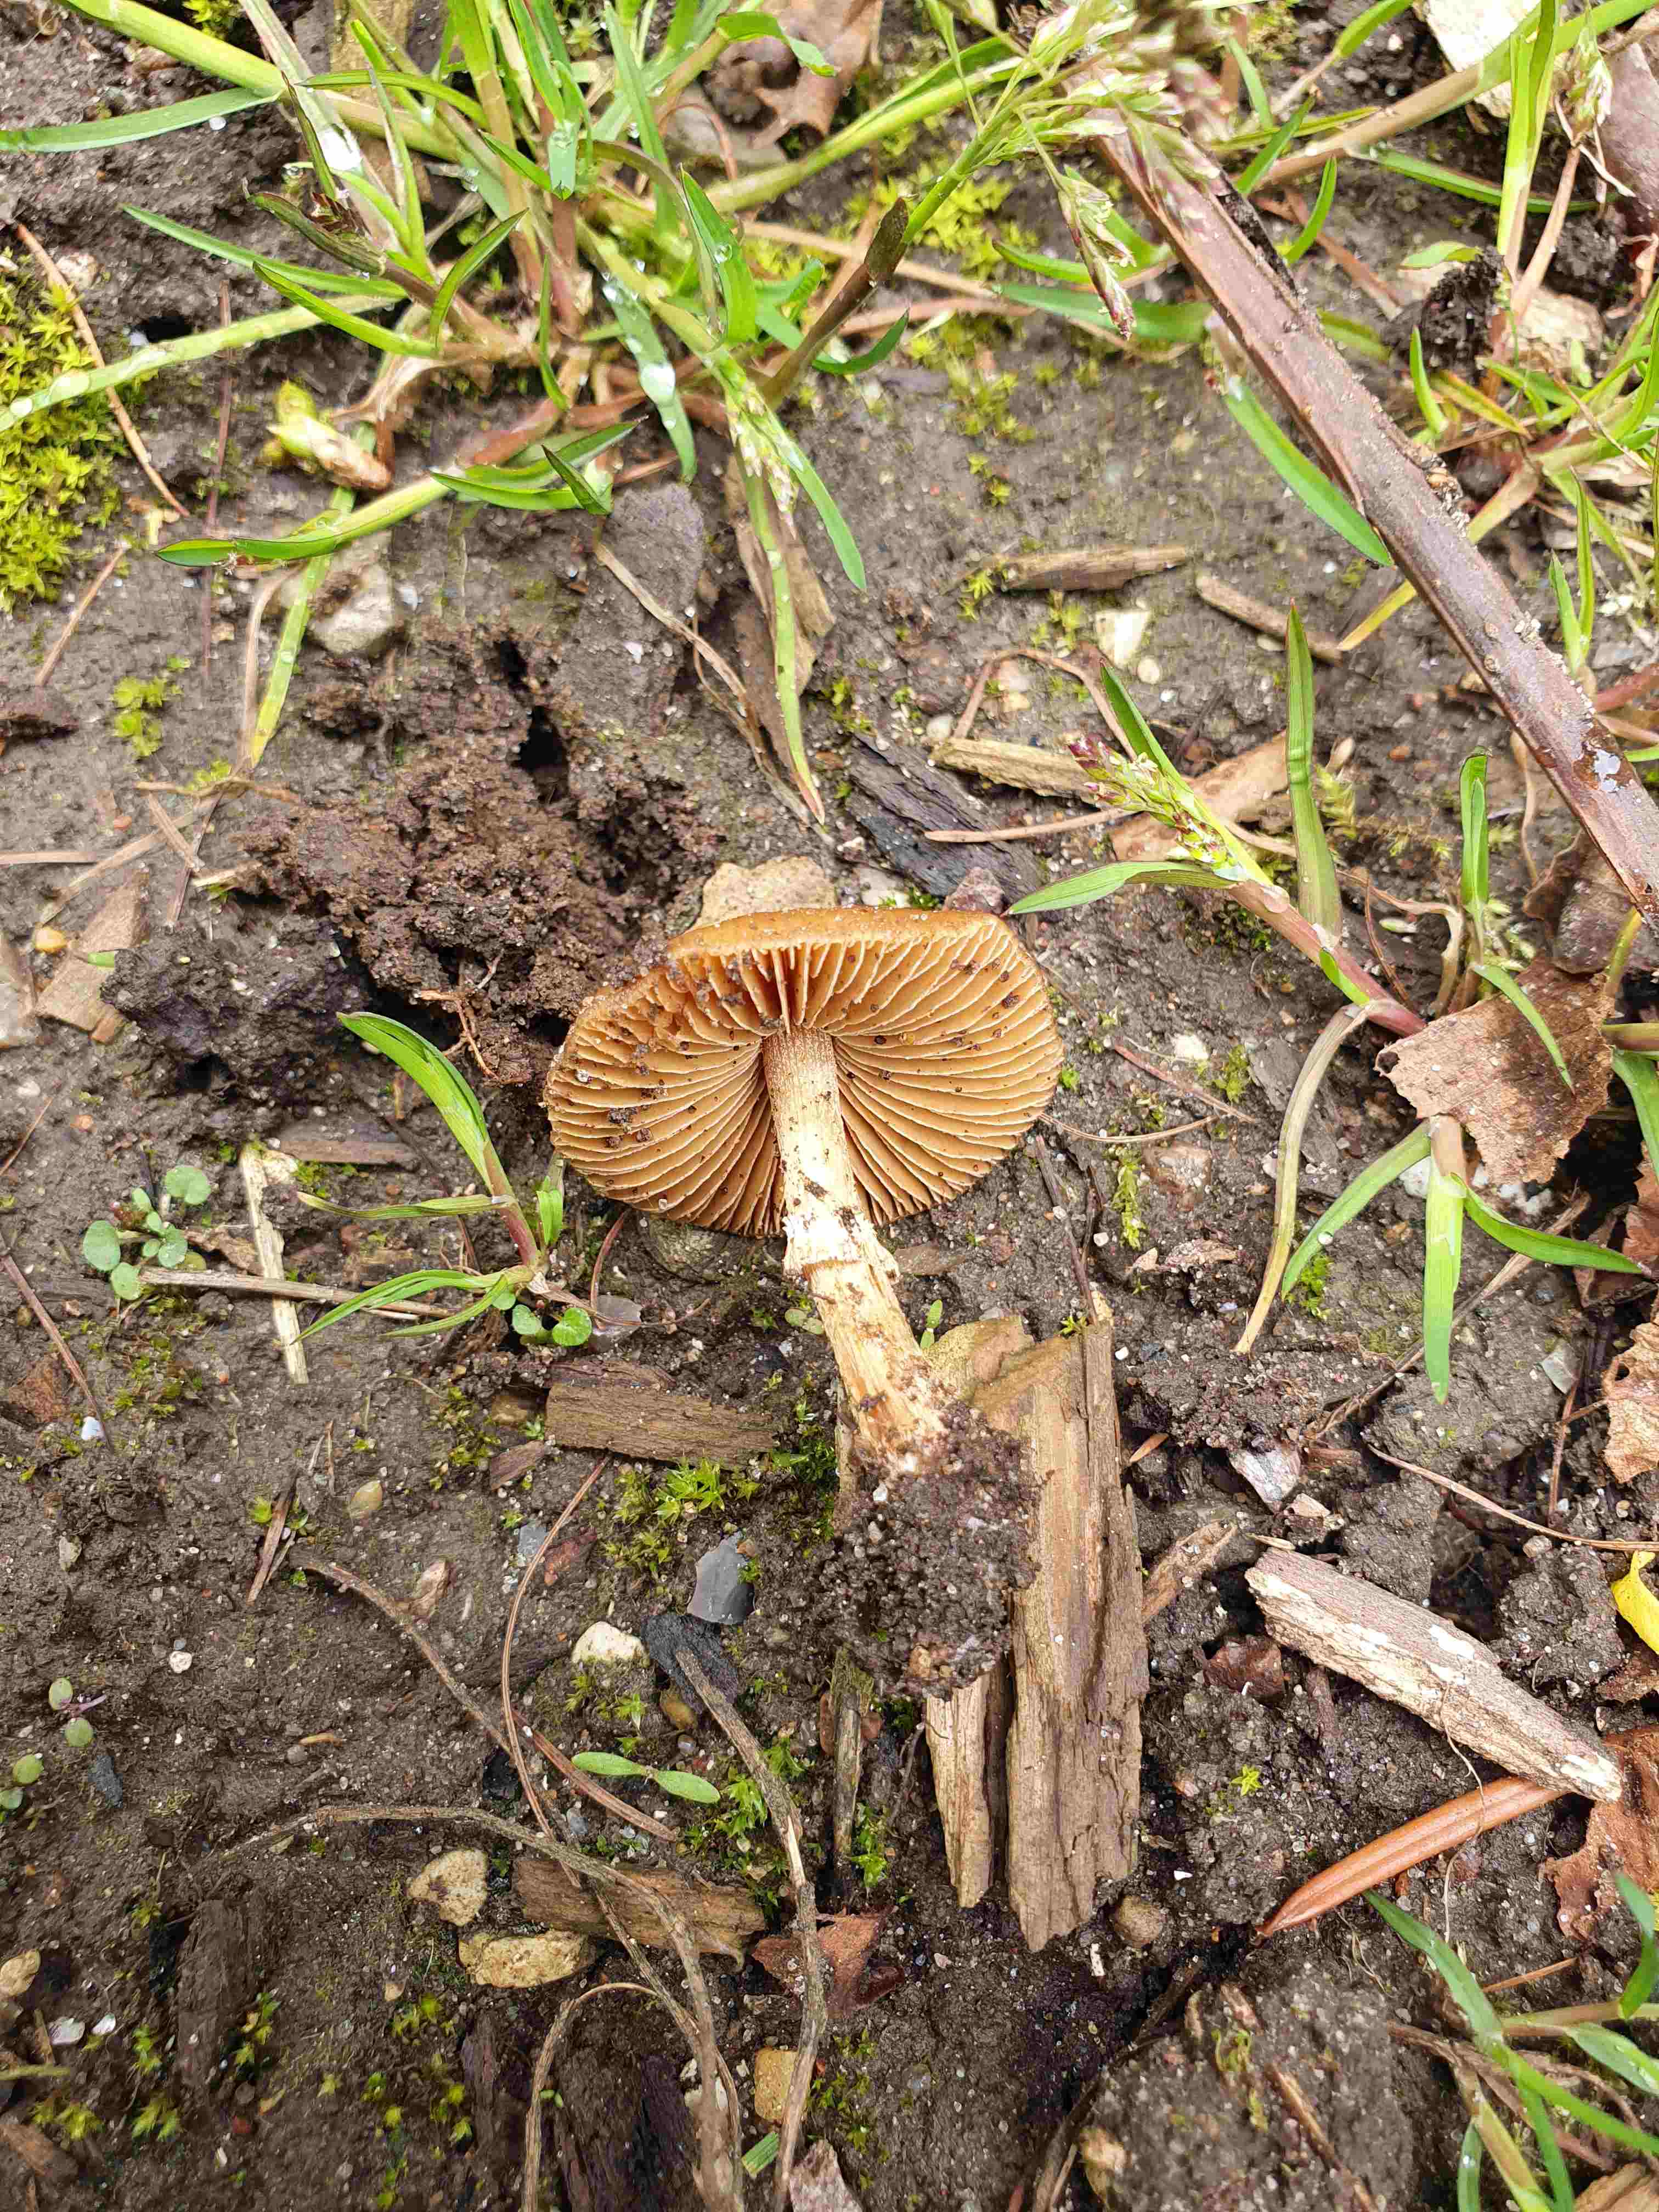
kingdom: Fungi
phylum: Basidiomycota
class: Agaricomycetes
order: Agaricales
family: Bolbitiaceae
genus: Conocybe
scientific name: Conocybe aporos
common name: tidlig dansehat
